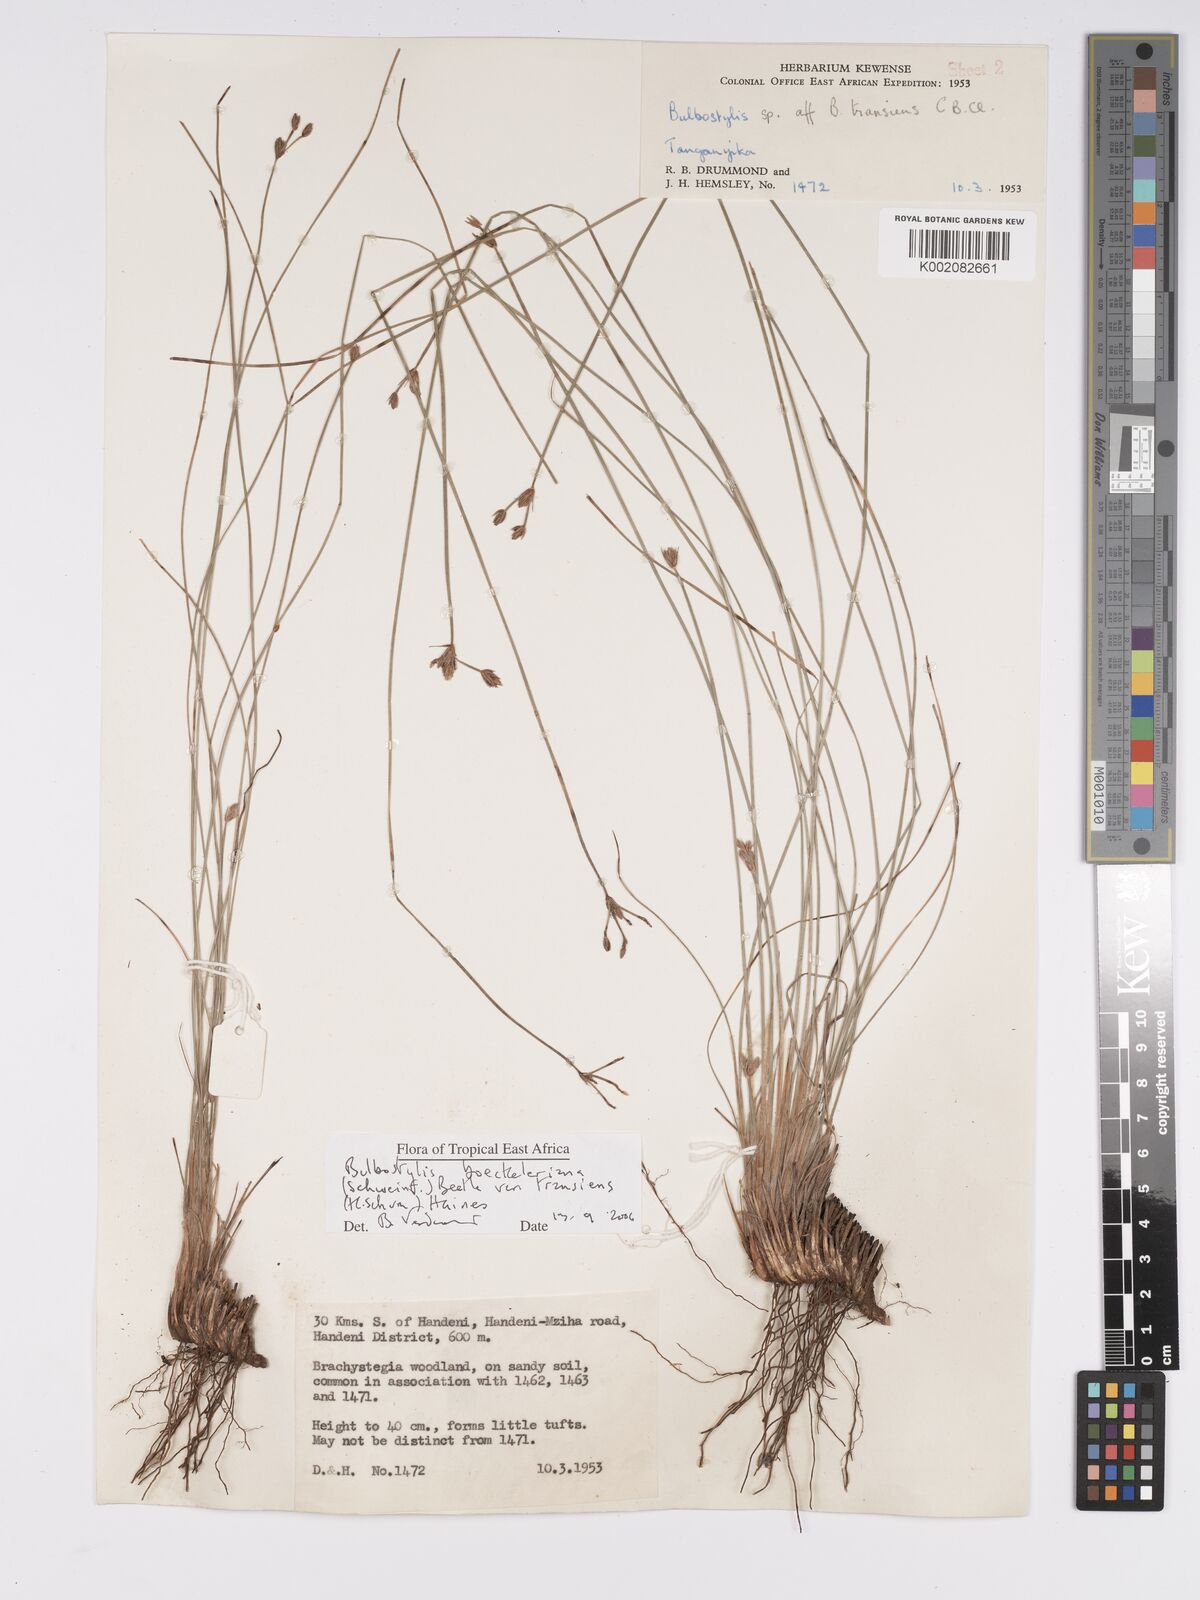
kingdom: Plantae
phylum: Tracheophyta
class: Liliopsida
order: Poales
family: Cyperaceae
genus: Bulbostylis
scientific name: Bulbostylis boeckeleriana
